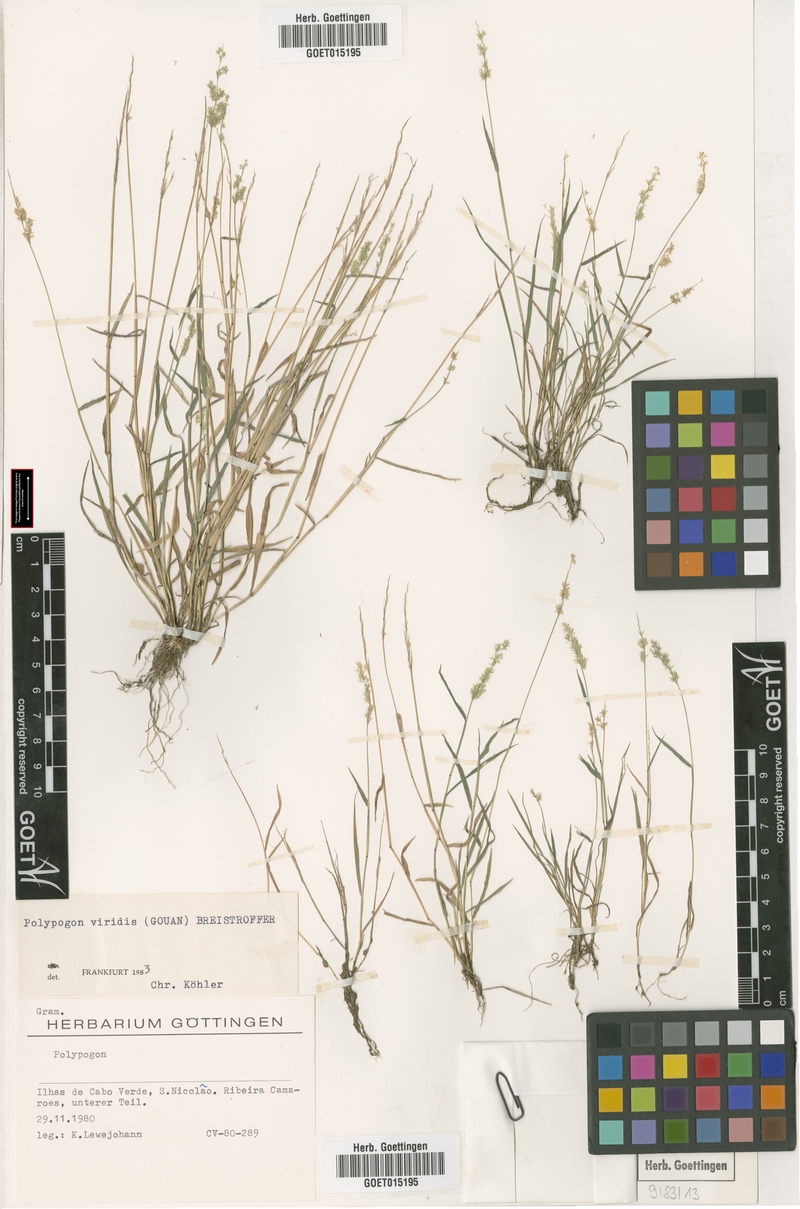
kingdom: Plantae
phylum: Tracheophyta
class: Liliopsida
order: Poales
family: Poaceae
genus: Polypogon
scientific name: Polypogon viridis
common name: Water bent
